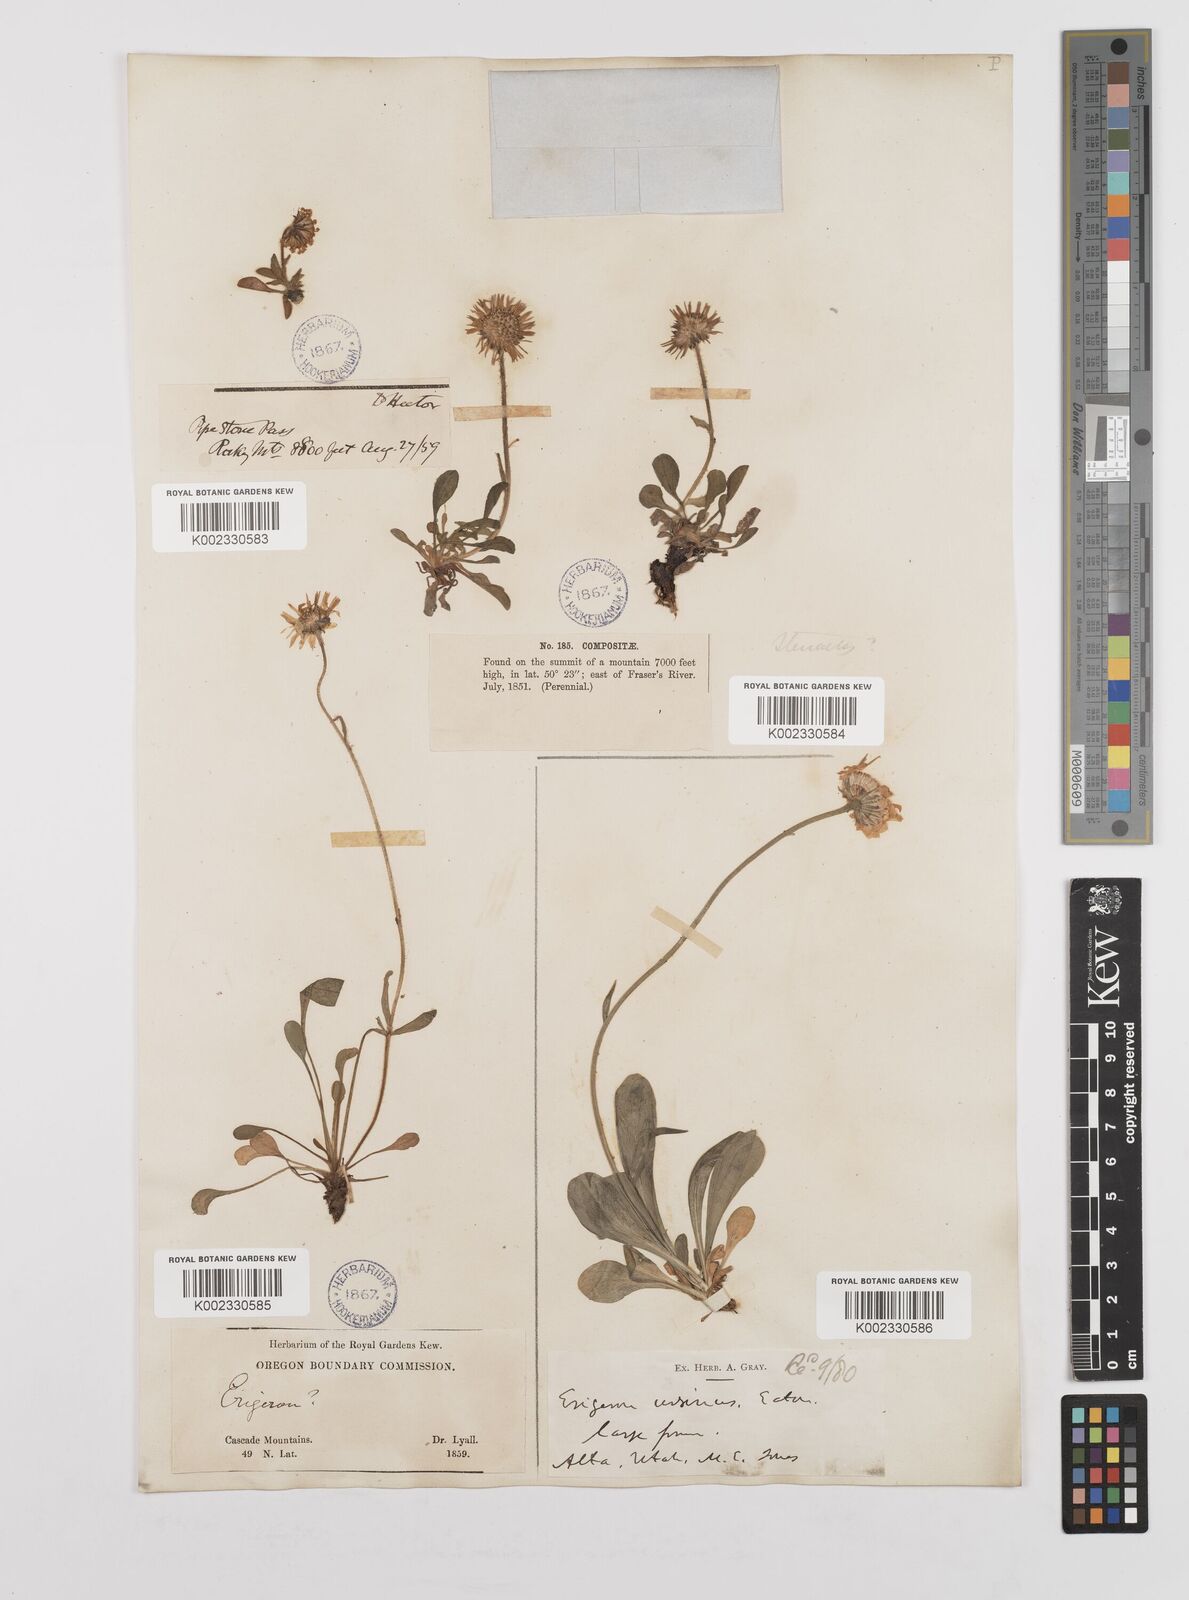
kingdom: Plantae
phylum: Tracheophyta
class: Magnoliopsida
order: Asterales
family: Asteraceae
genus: Erigeron
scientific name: Erigeron ursinus
